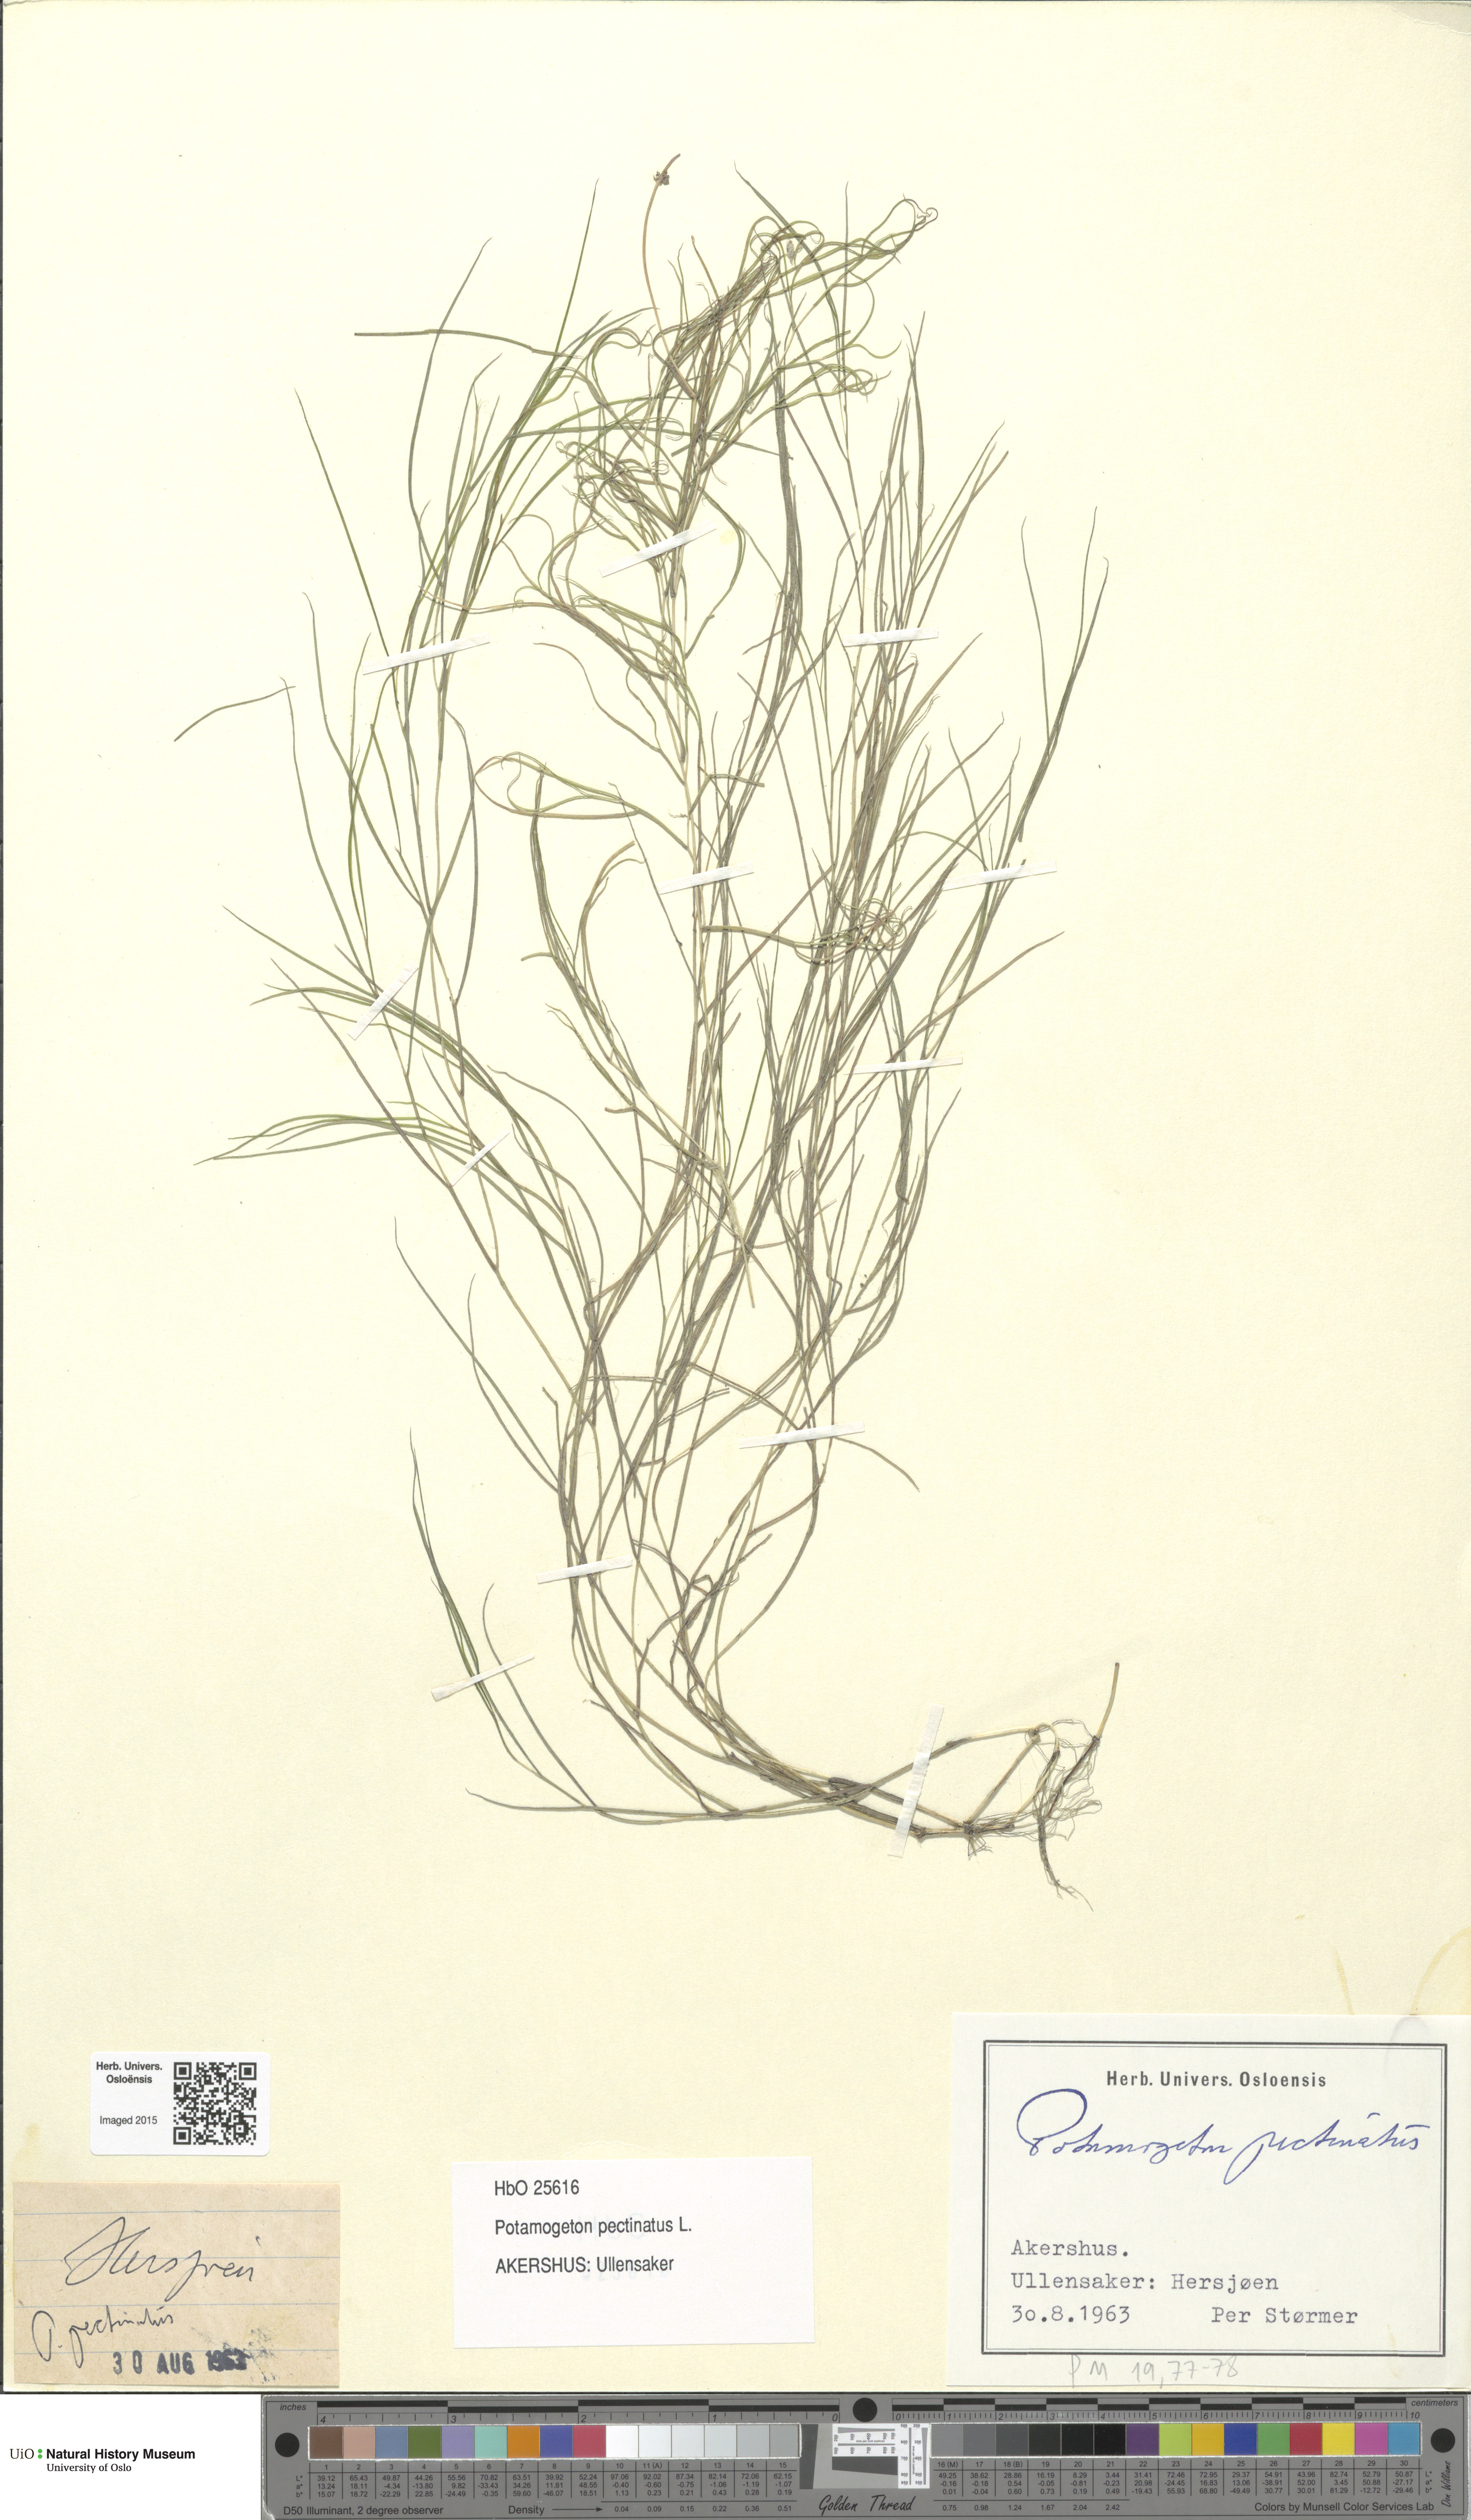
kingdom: Plantae
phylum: Tracheophyta
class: Liliopsida
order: Alismatales
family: Potamogetonaceae
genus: Stuckenia
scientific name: Stuckenia pectinata
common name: Sago pondweed
